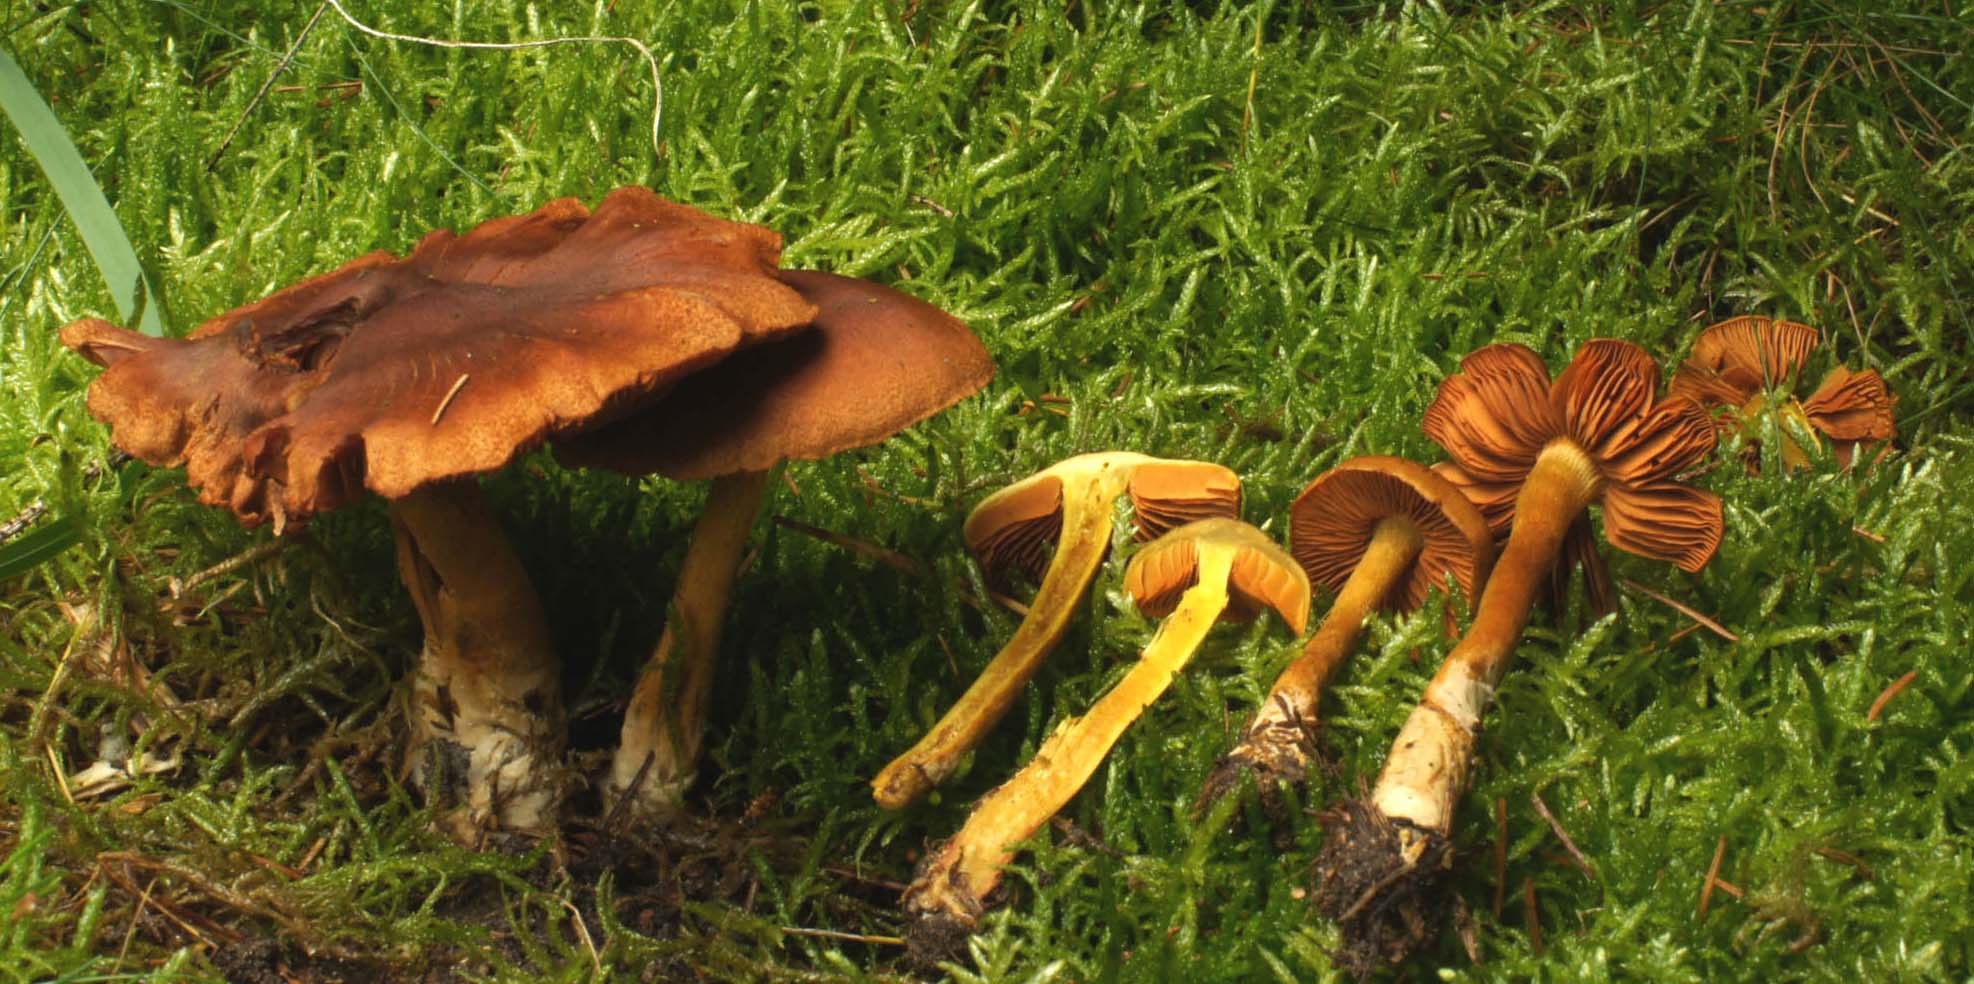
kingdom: Fungi
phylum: Basidiomycota
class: Agaricomycetes
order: Agaricales
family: Cortinariaceae
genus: Cortinarius
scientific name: Cortinarius malicorius
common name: grønkødet slørhat
